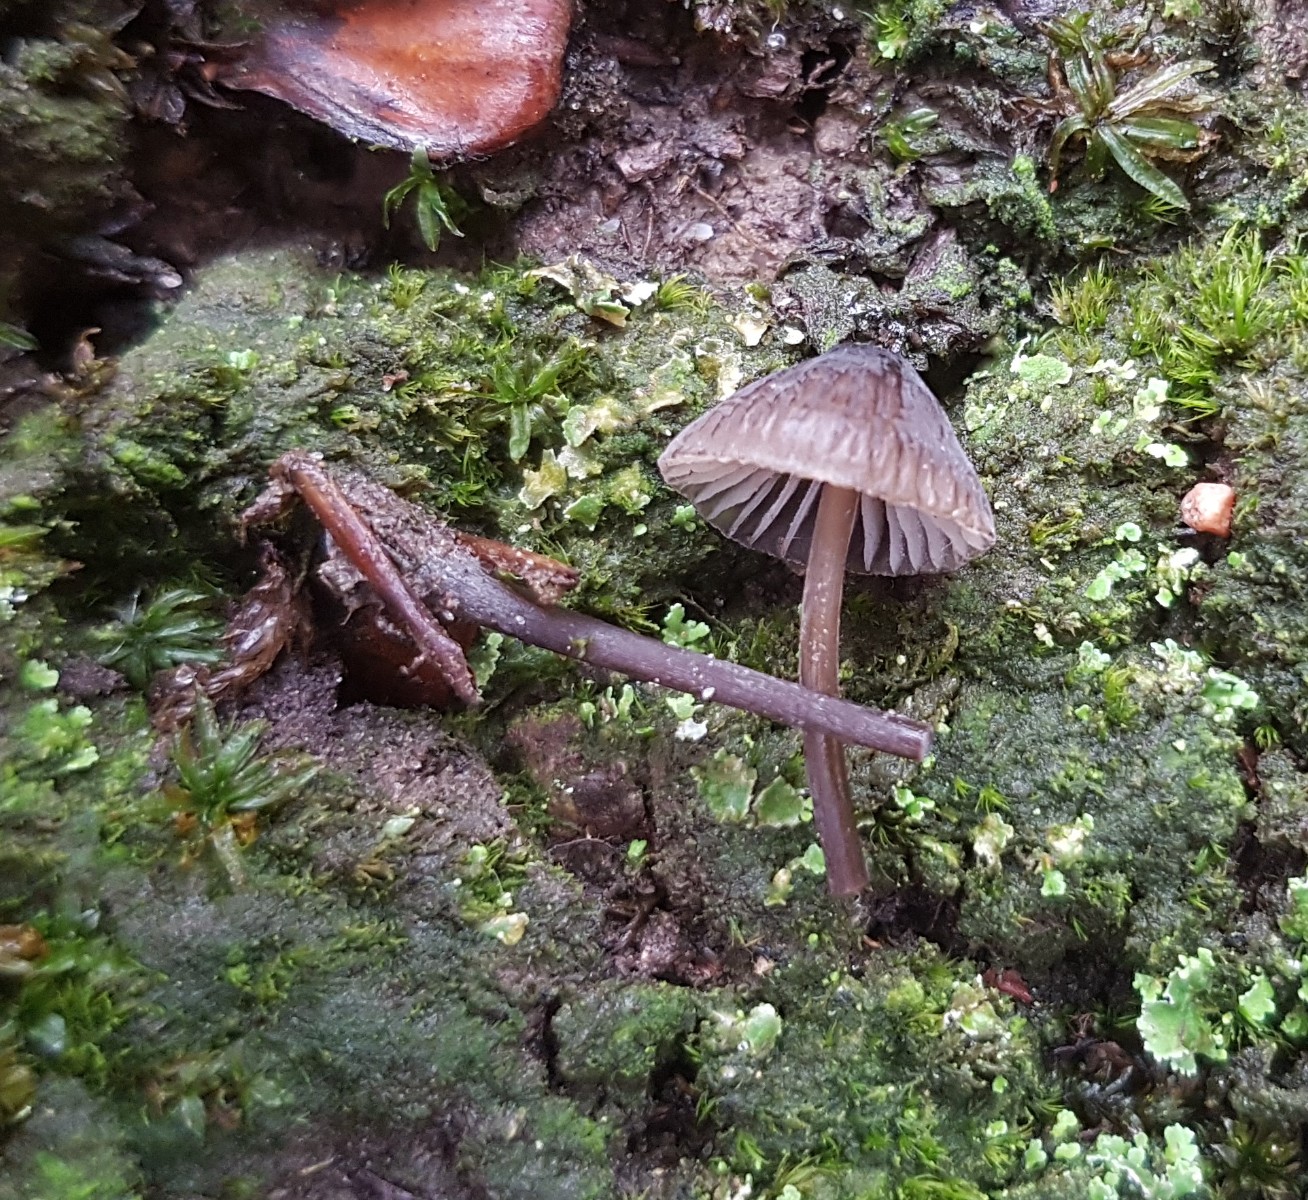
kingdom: Fungi
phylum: Basidiomycota
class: Agaricomycetes
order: Agaricales
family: Mycenaceae
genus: Mycena
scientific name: Mycena galopus
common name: hvidmælket huesvamp
